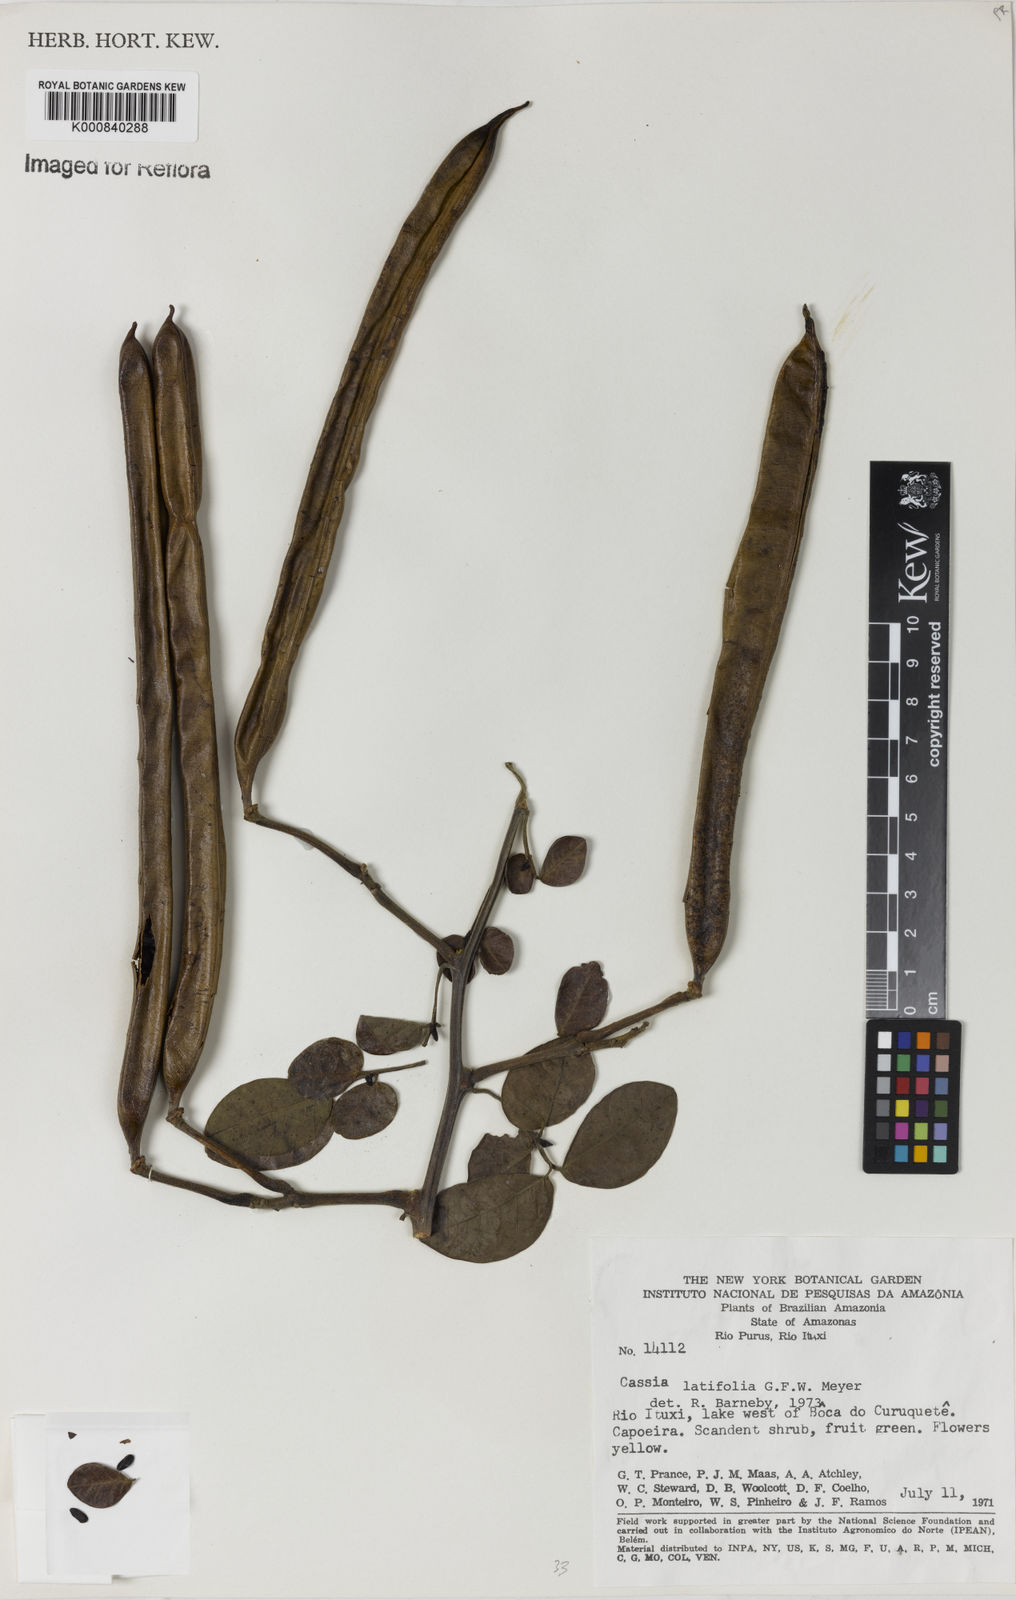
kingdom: Plantae
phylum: Tracheophyta
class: Magnoliopsida
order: Fabales
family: Fabaceae
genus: Senna
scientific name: Senna latifolia
